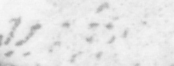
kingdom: Animalia
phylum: Chordata
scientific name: Chordata
